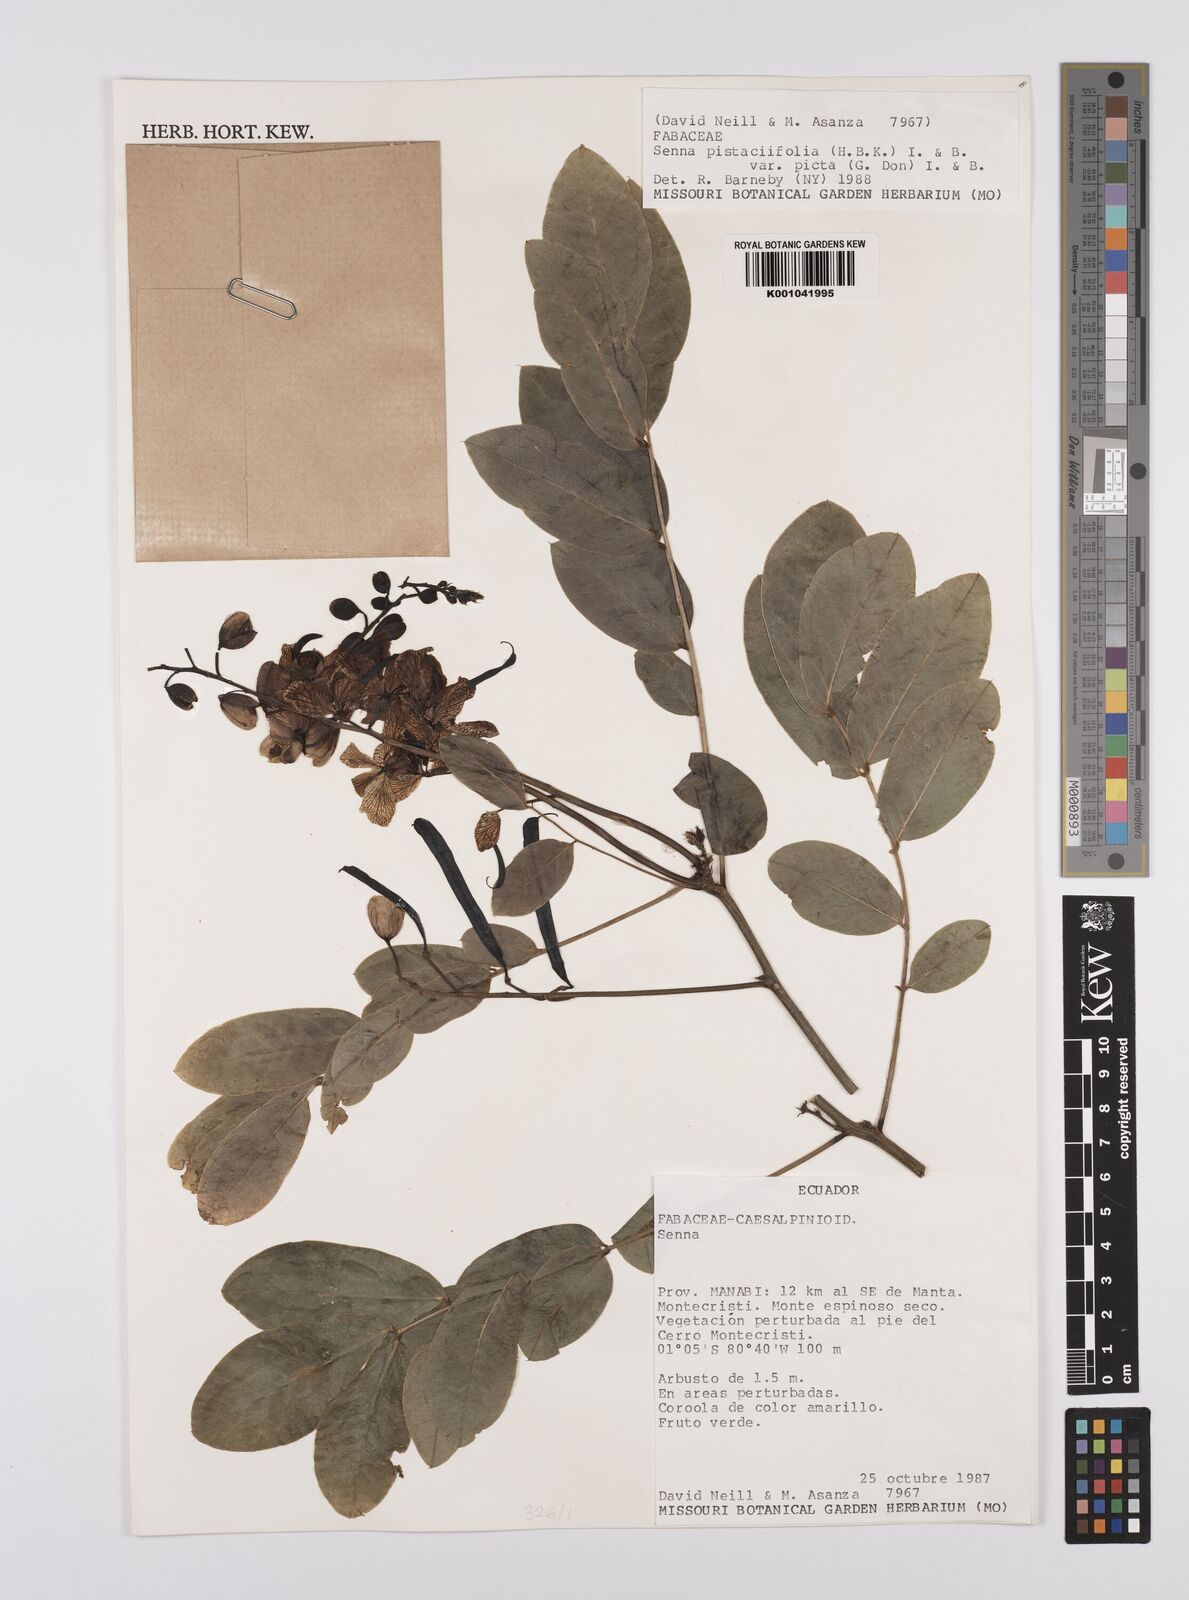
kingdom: Plantae
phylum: Tracheophyta
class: Magnoliopsida
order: Fabales
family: Fabaceae
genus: Senna
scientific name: Senna pistaciifolia
